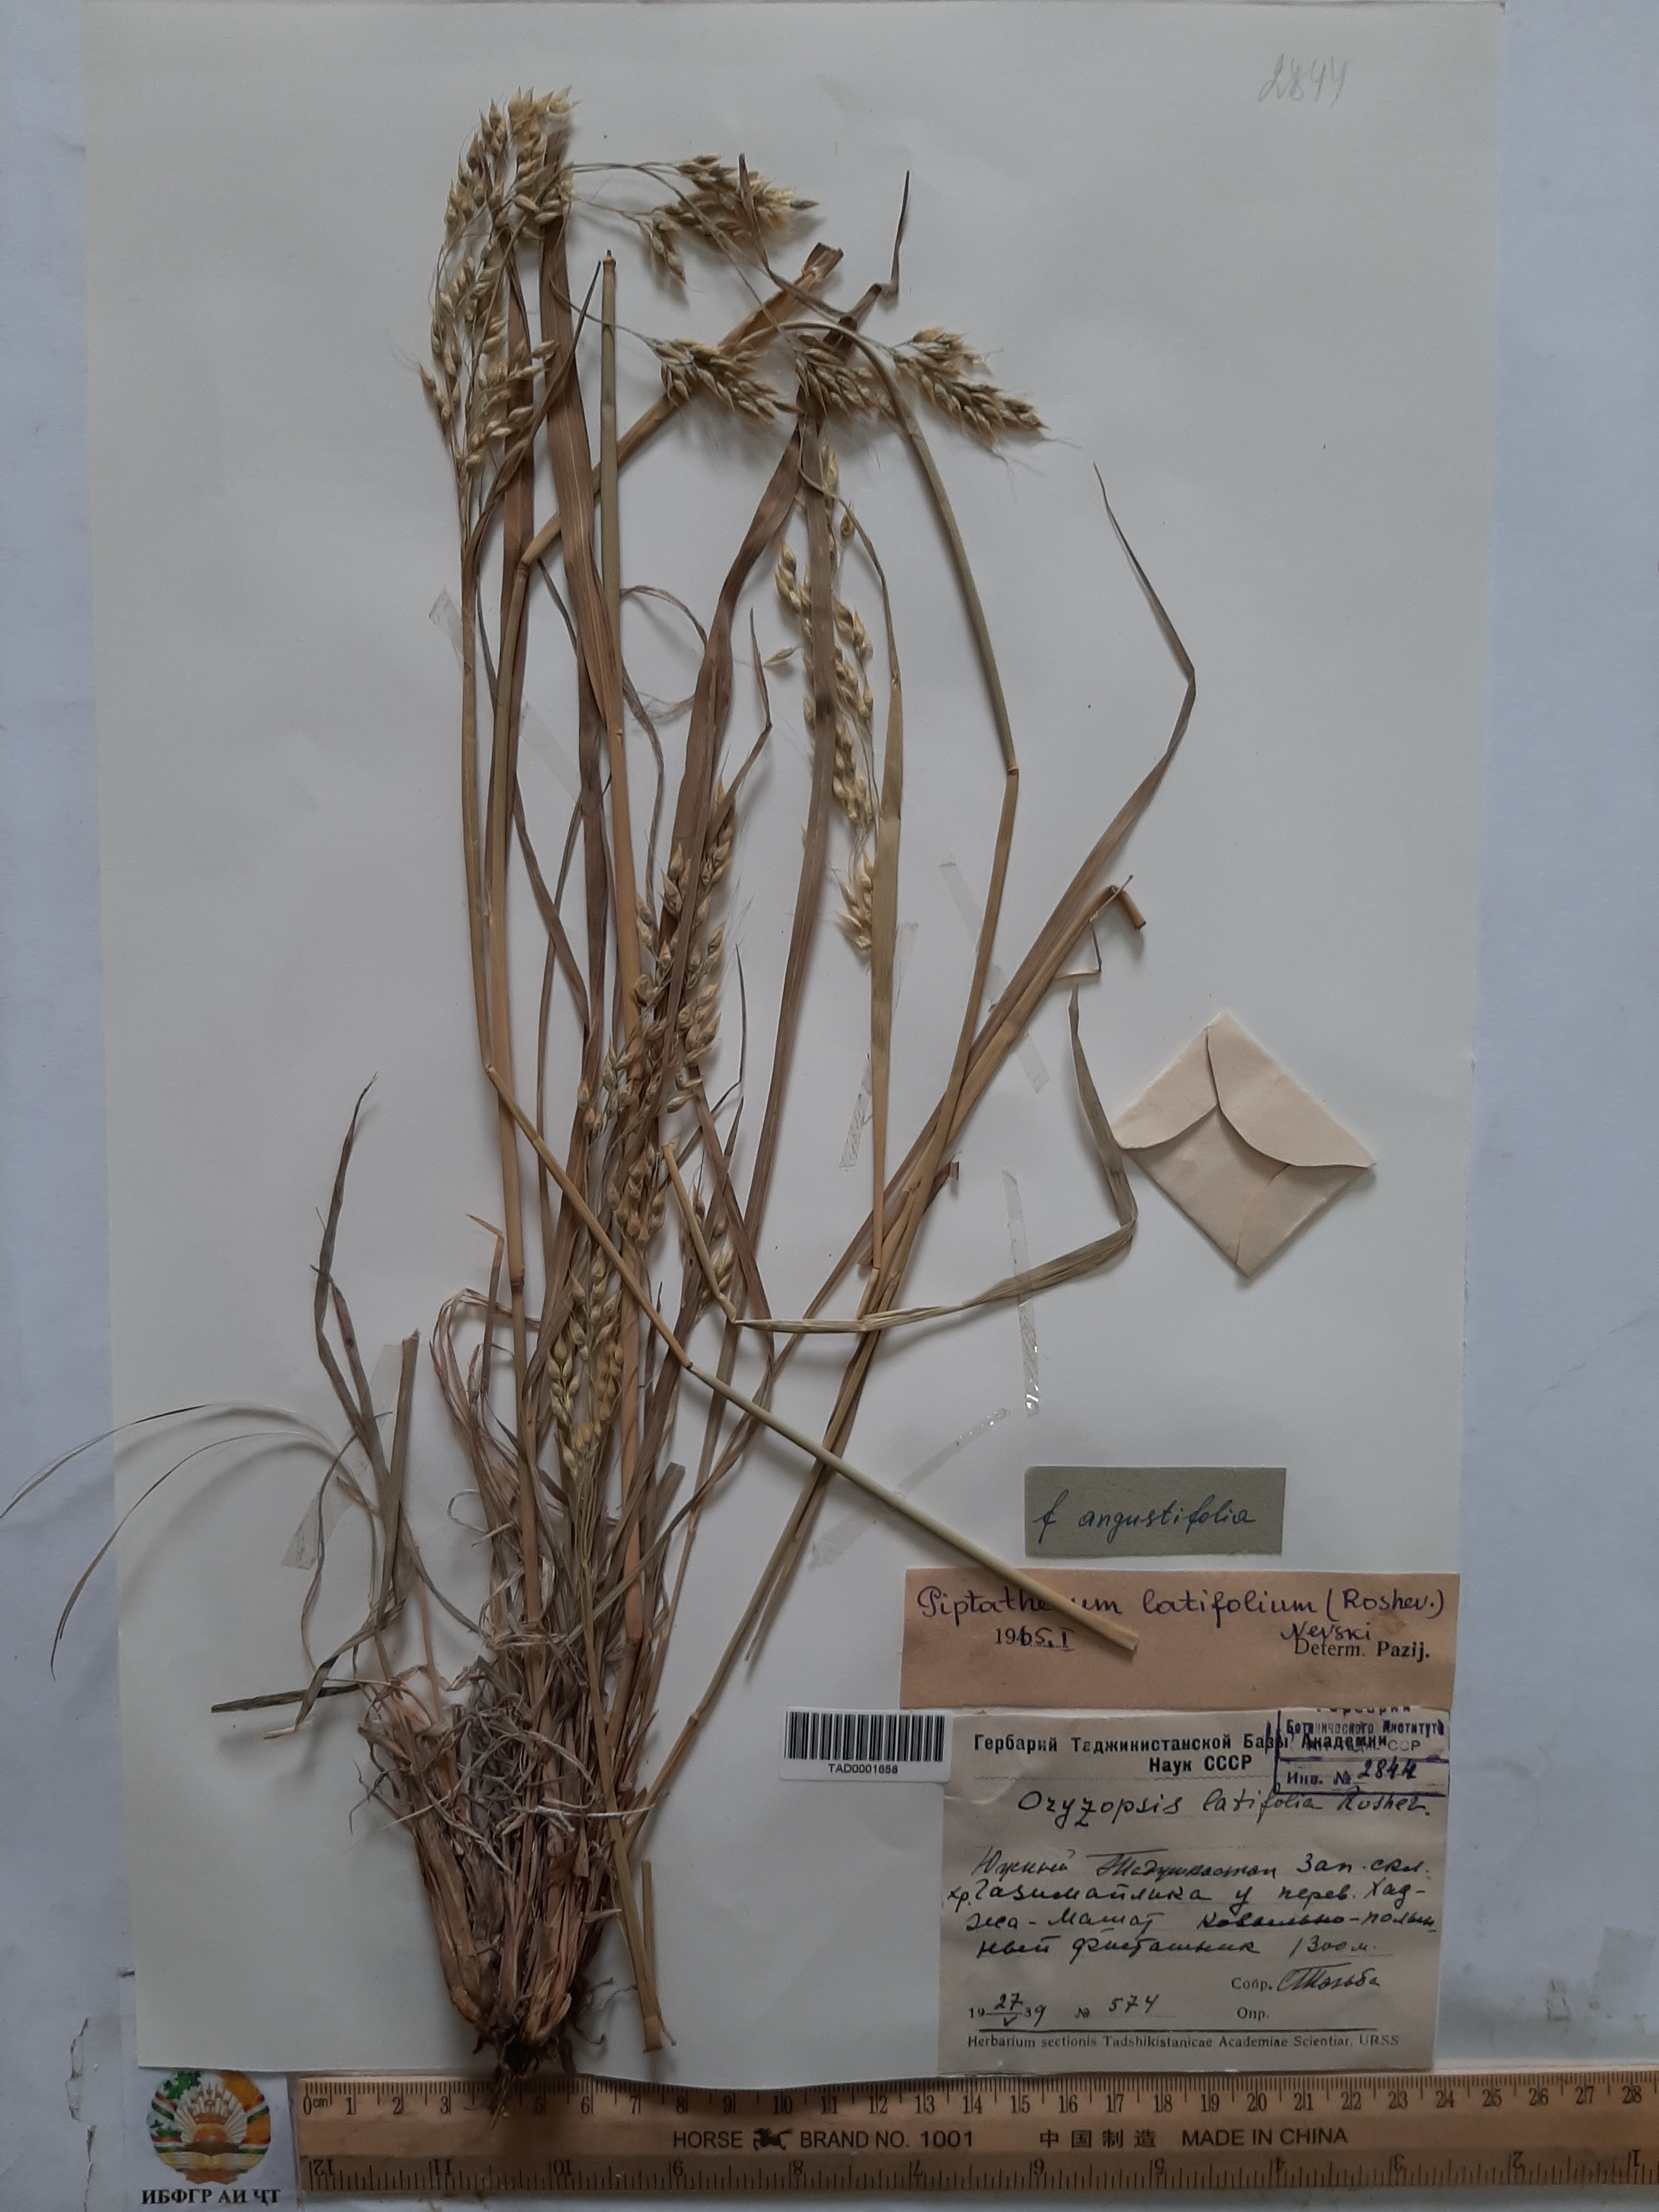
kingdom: Plantae
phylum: Tracheophyta
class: Liliopsida
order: Poales
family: Poaceae
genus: Piptatherum
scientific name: Piptatherum latifolium
